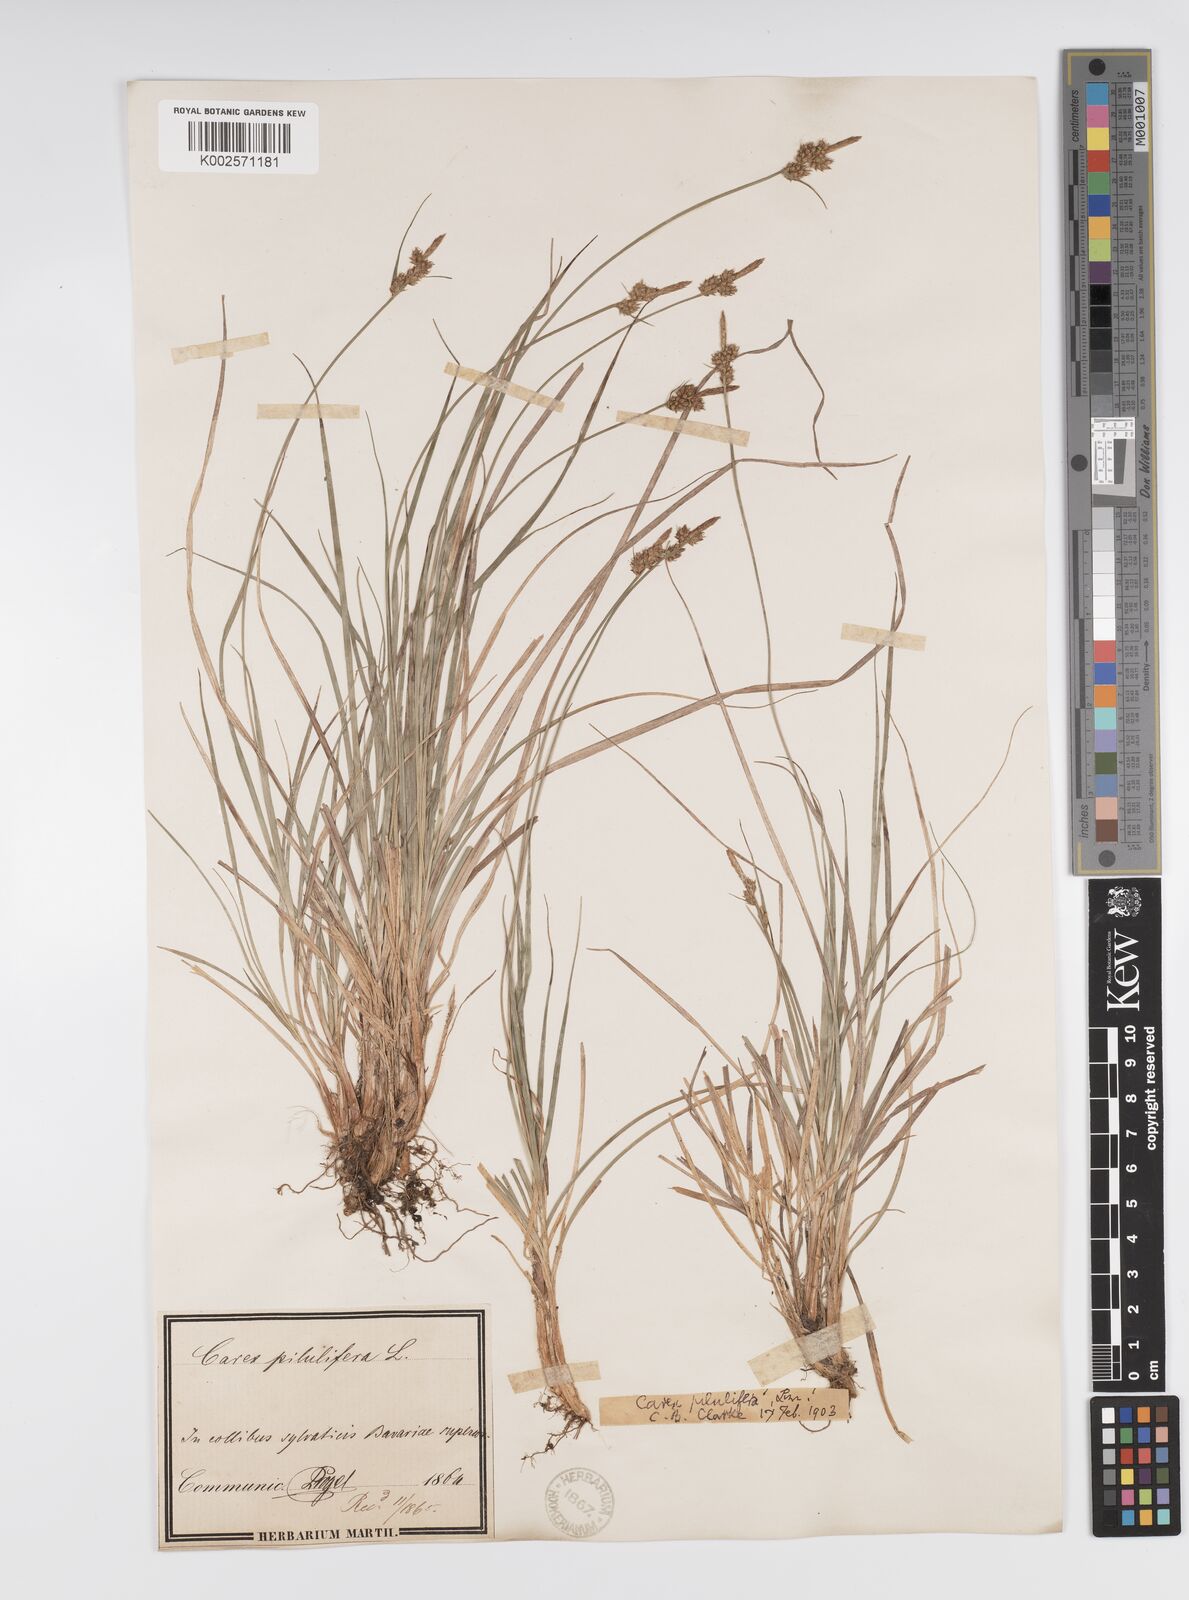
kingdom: Plantae
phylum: Tracheophyta
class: Liliopsida
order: Poales
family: Cyperaceae
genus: Carex
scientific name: Carex pilulifera
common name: Pill sedge
